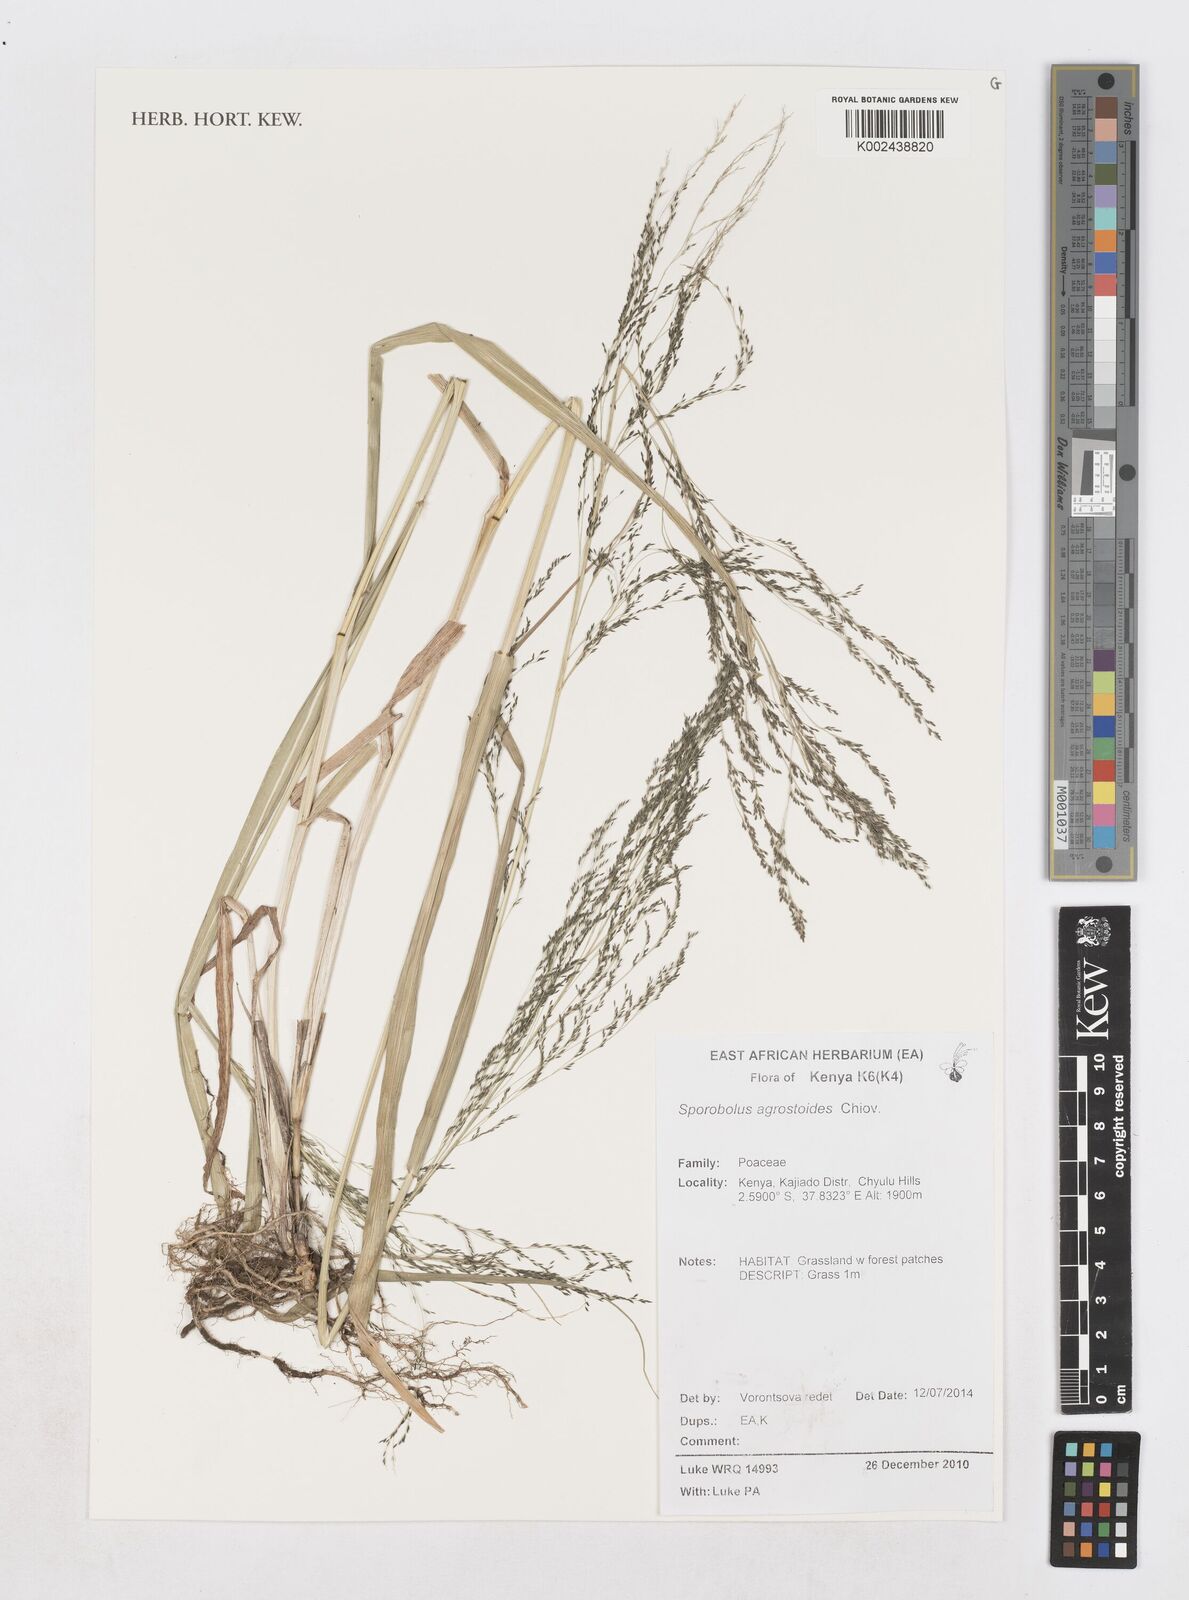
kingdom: Plantae
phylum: Tracheophyta
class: Liliopsida
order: Poales
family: Poaceae
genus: Sporobolus
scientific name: Sporobolus agrostoides
